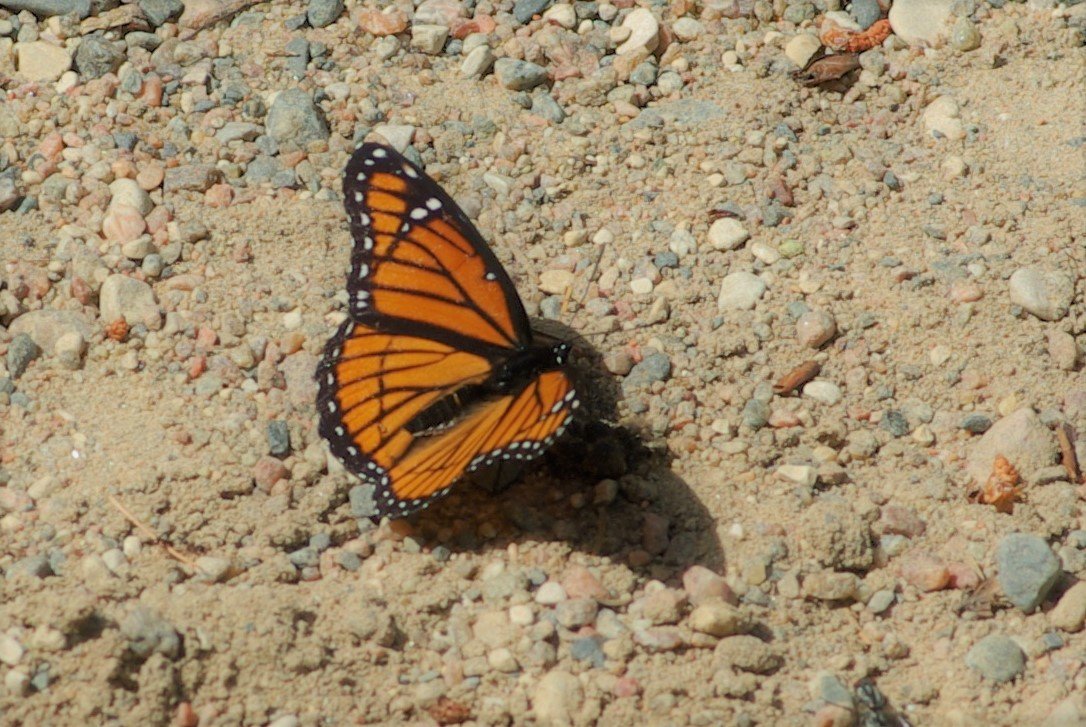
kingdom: Animalia
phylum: Arthropoda
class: Insecta
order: Lepidoptera
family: Nymphalidae
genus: Limenitis
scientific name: Limenitis archippus
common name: Viceroy
